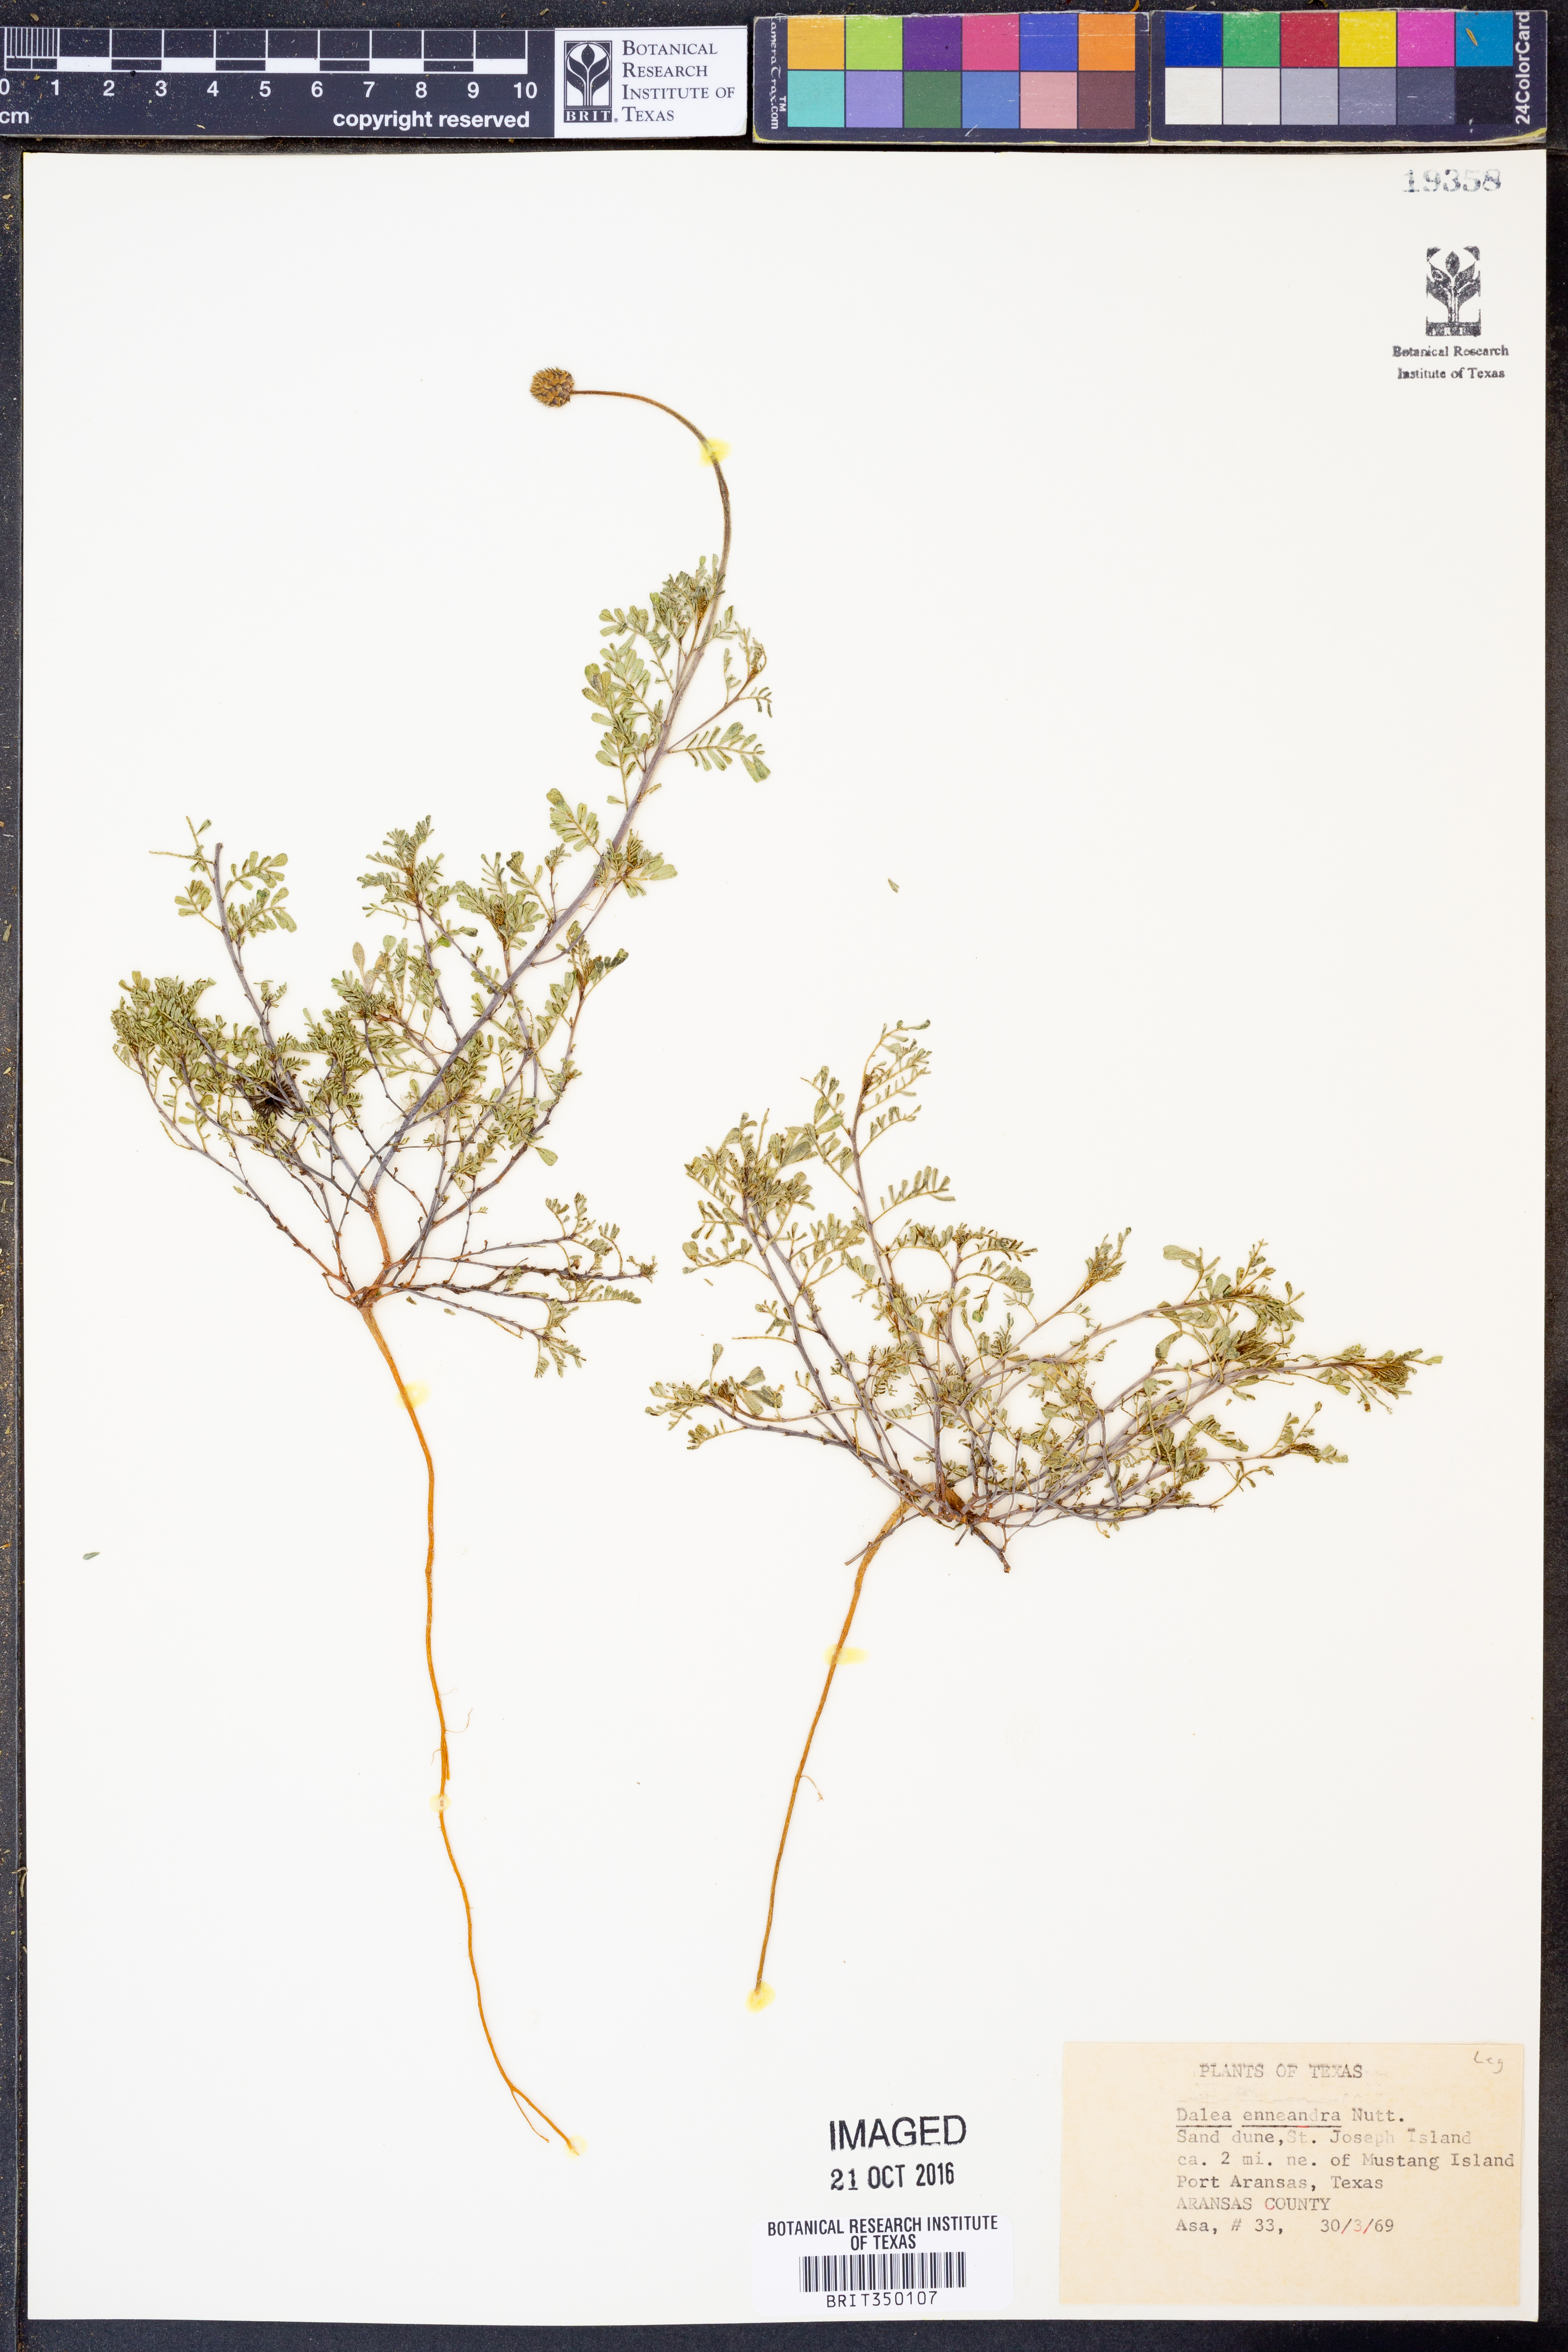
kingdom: Plantae
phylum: Tracheophyta
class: Magnoliopsida
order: Fabales
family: Fabaceae
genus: Dalea
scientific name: Dalea enneandra
